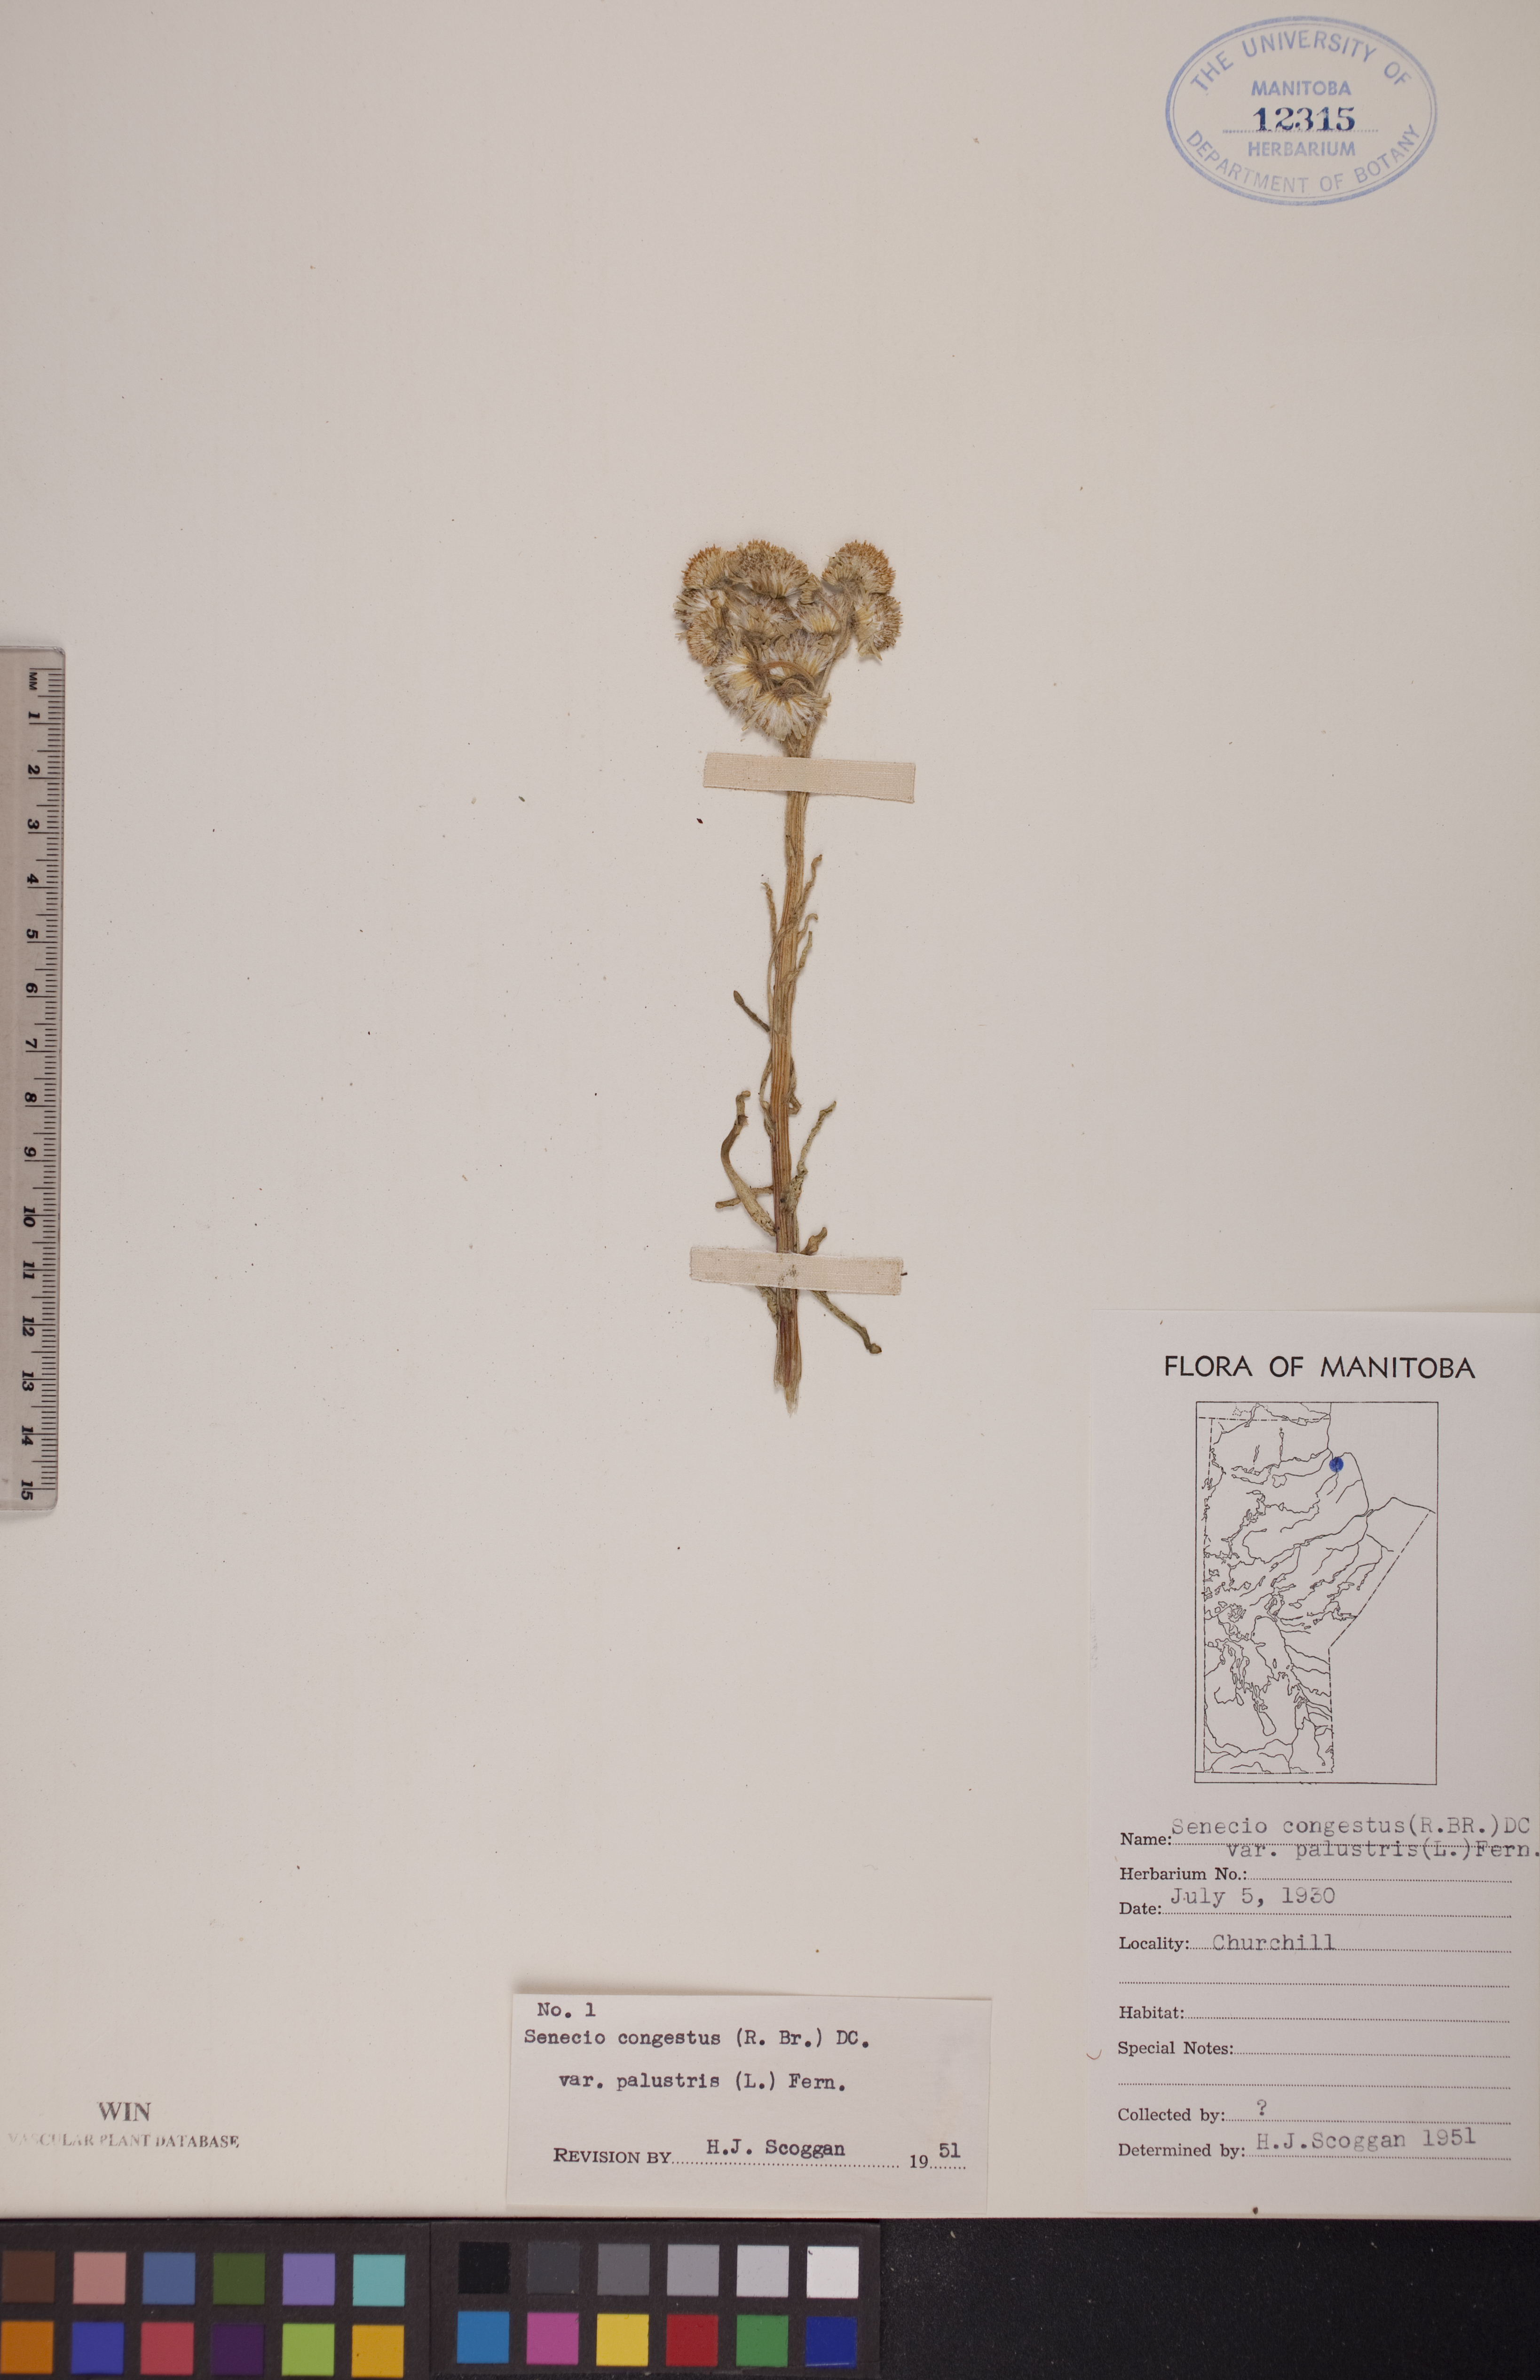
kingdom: Plantae
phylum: Tracheophyta
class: Magnoliopsida
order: Asterales
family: Asteraceae
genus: Tephroseris
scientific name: Tephroseris palustris
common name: Marsh fleawort
